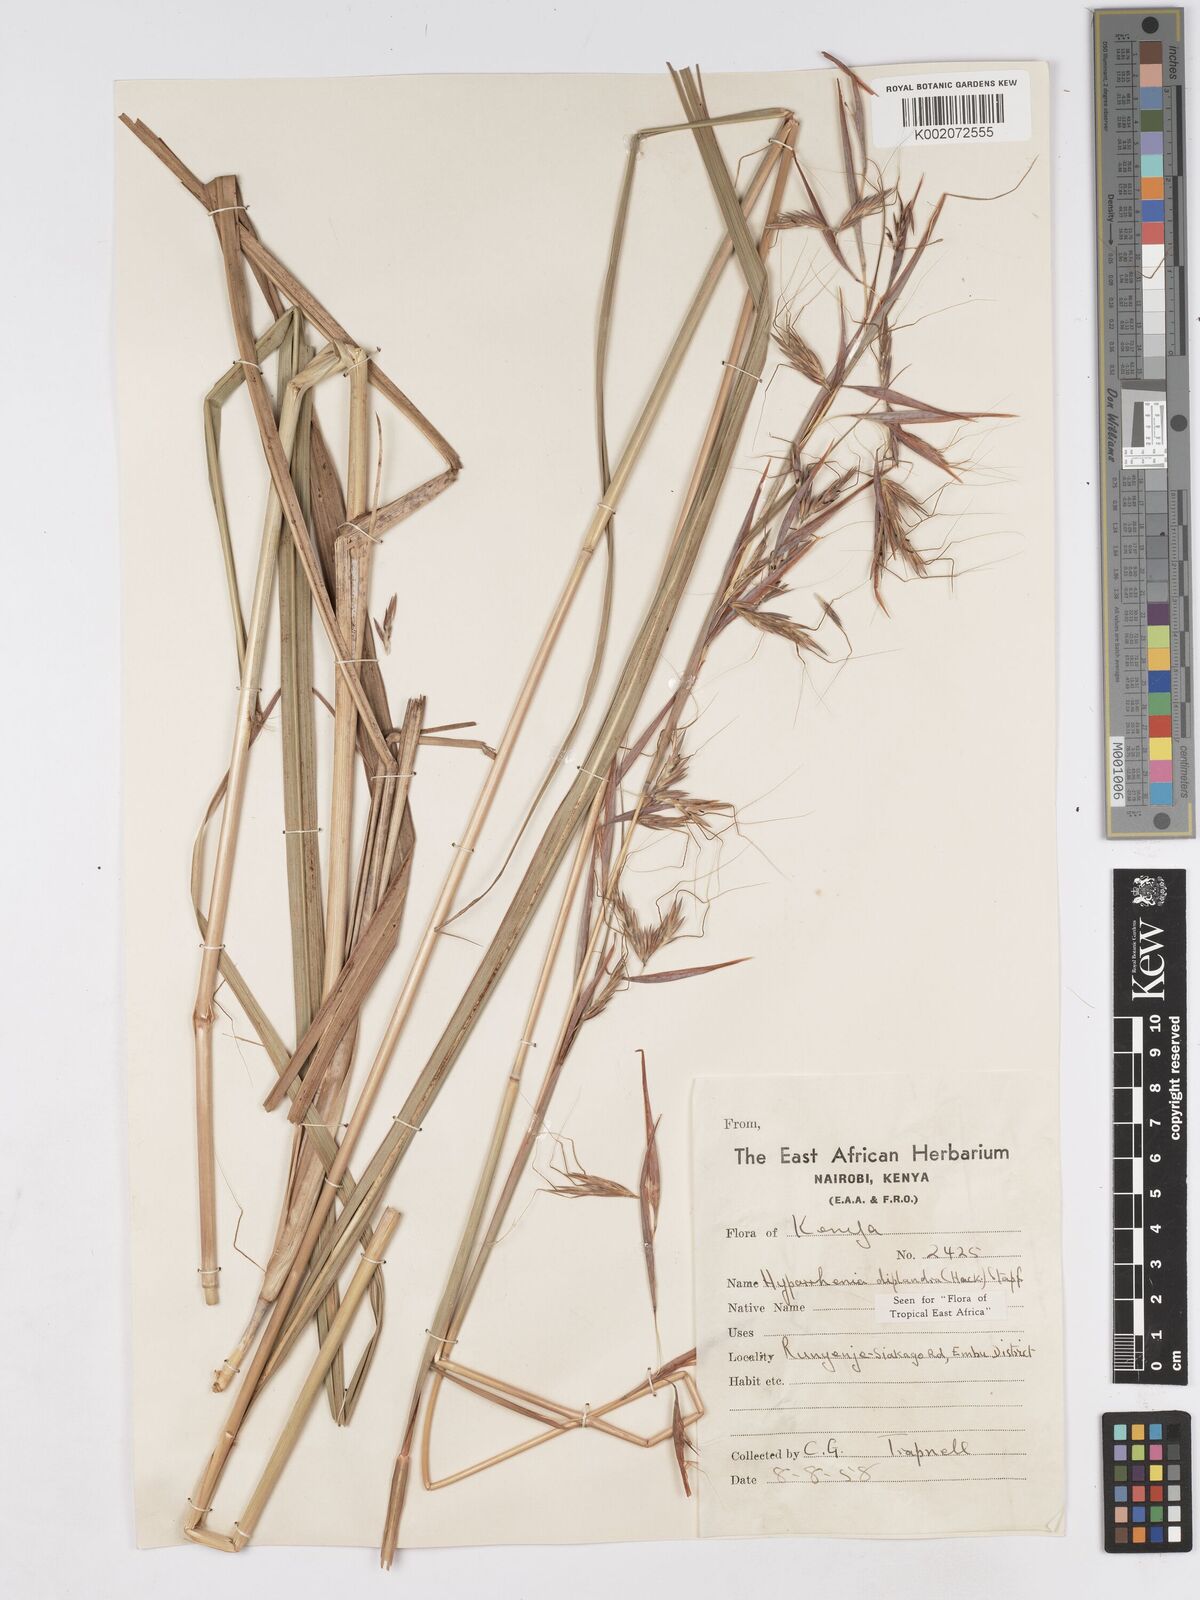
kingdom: Plantae
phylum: Tracheophyta
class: Liliopsida
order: Poales
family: Poaceae
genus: Hyparrhenia
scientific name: Hyparrhenia diplandra
